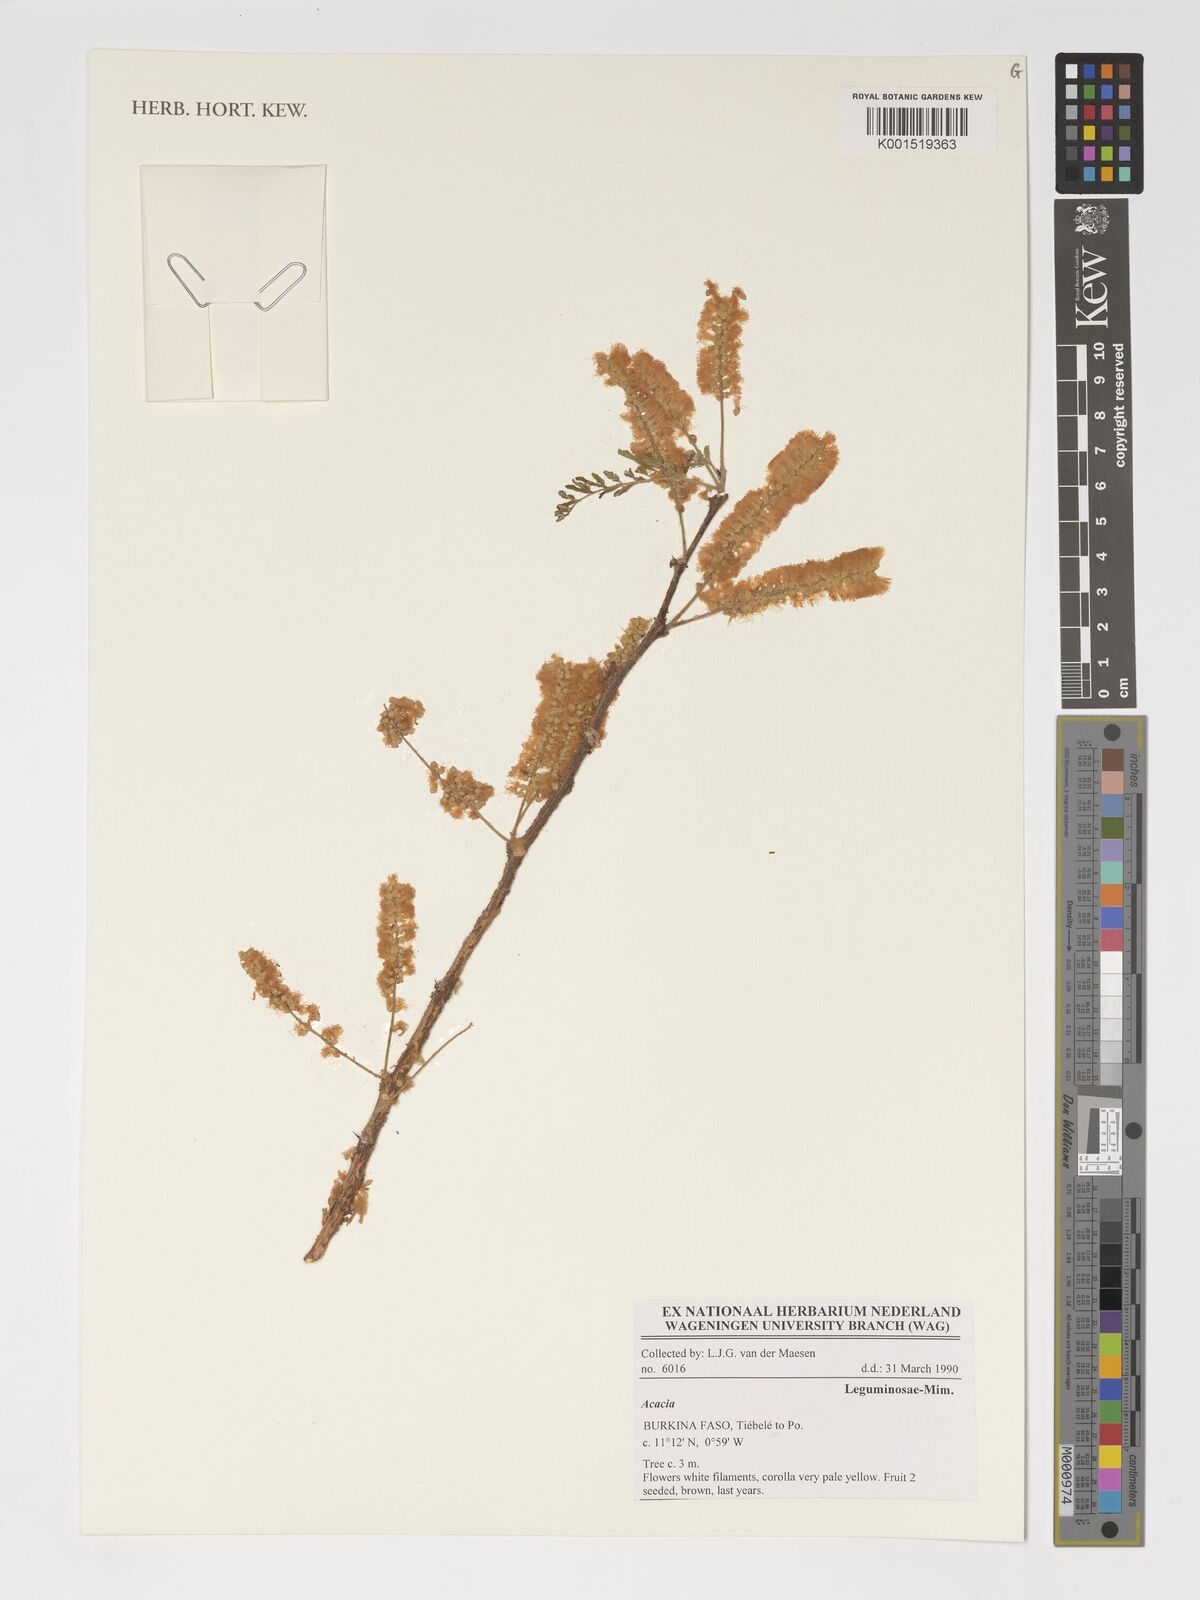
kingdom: Plantae
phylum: Tracheophyta
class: Magnoliopsida
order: Fabales
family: Fabaceae
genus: Acacia
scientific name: Acacia
